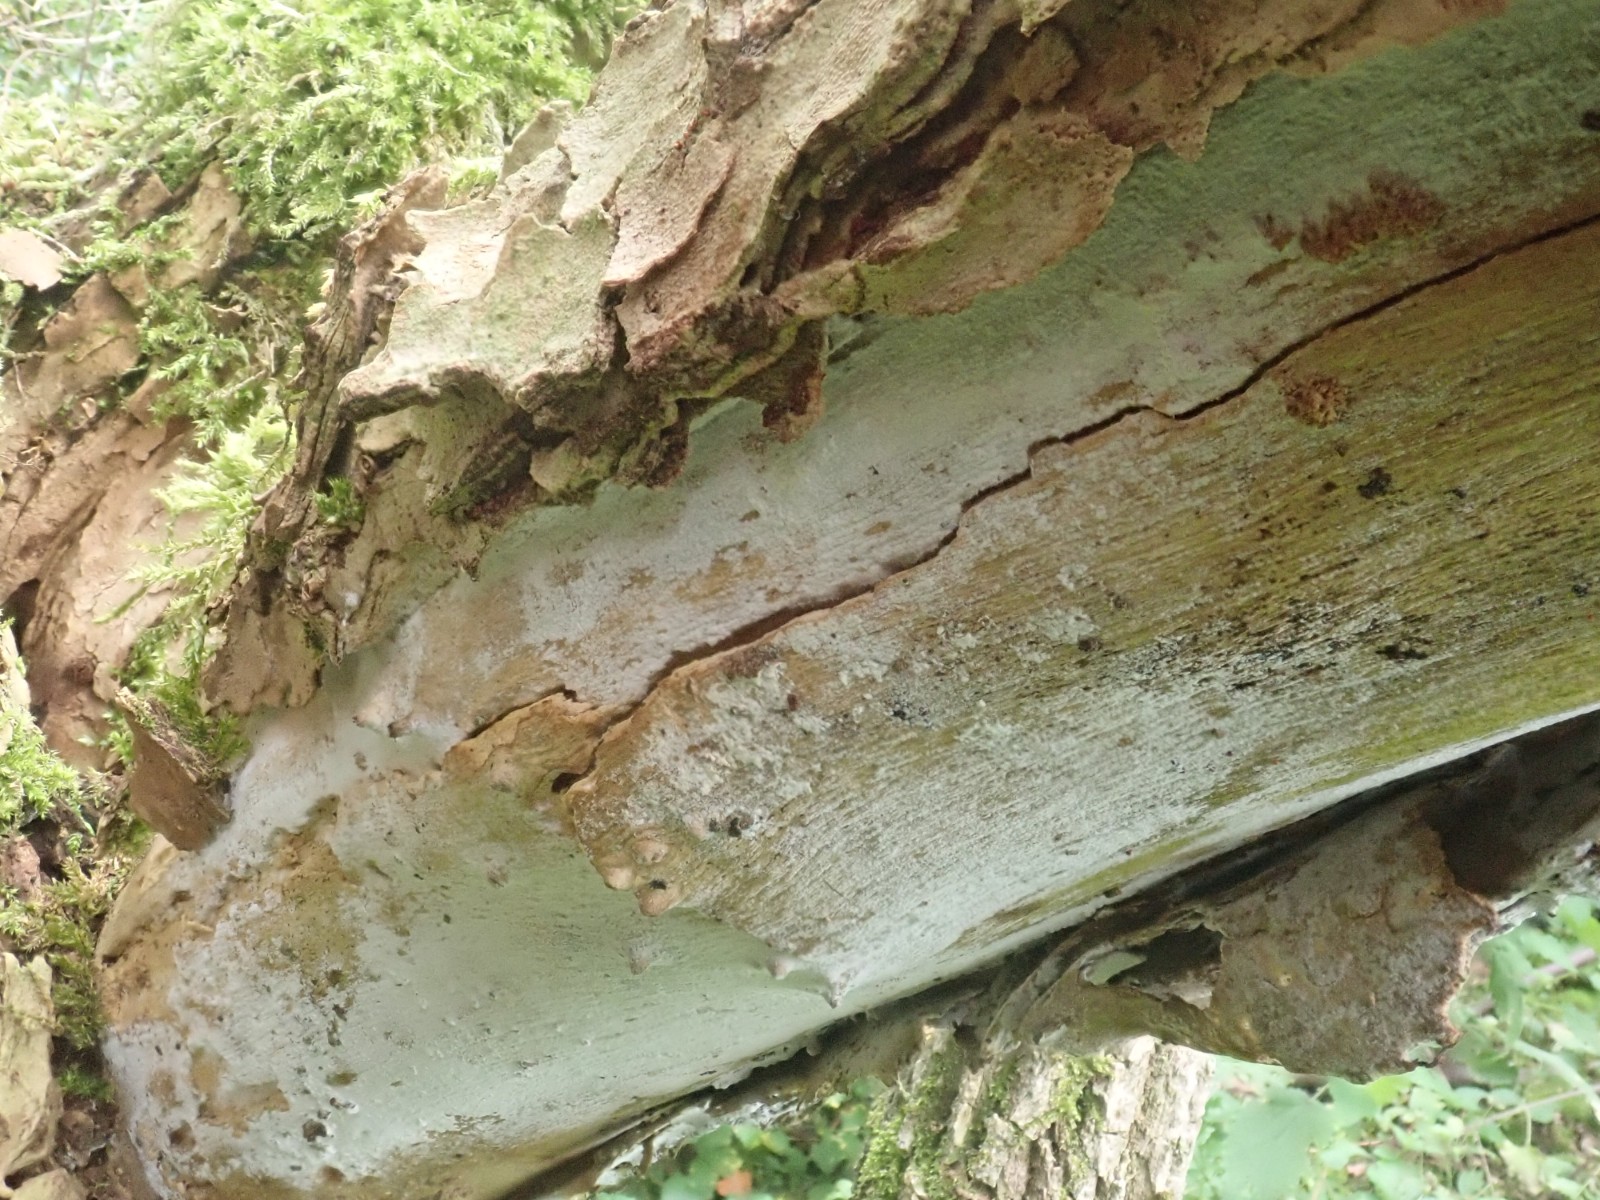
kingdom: Fungi
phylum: Basidiomycota
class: Agaricomycetes
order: Corticiales
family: Corticiaceae
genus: Lyomyces
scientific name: Lyomyces sambuci
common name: almindelig hyldehinde
